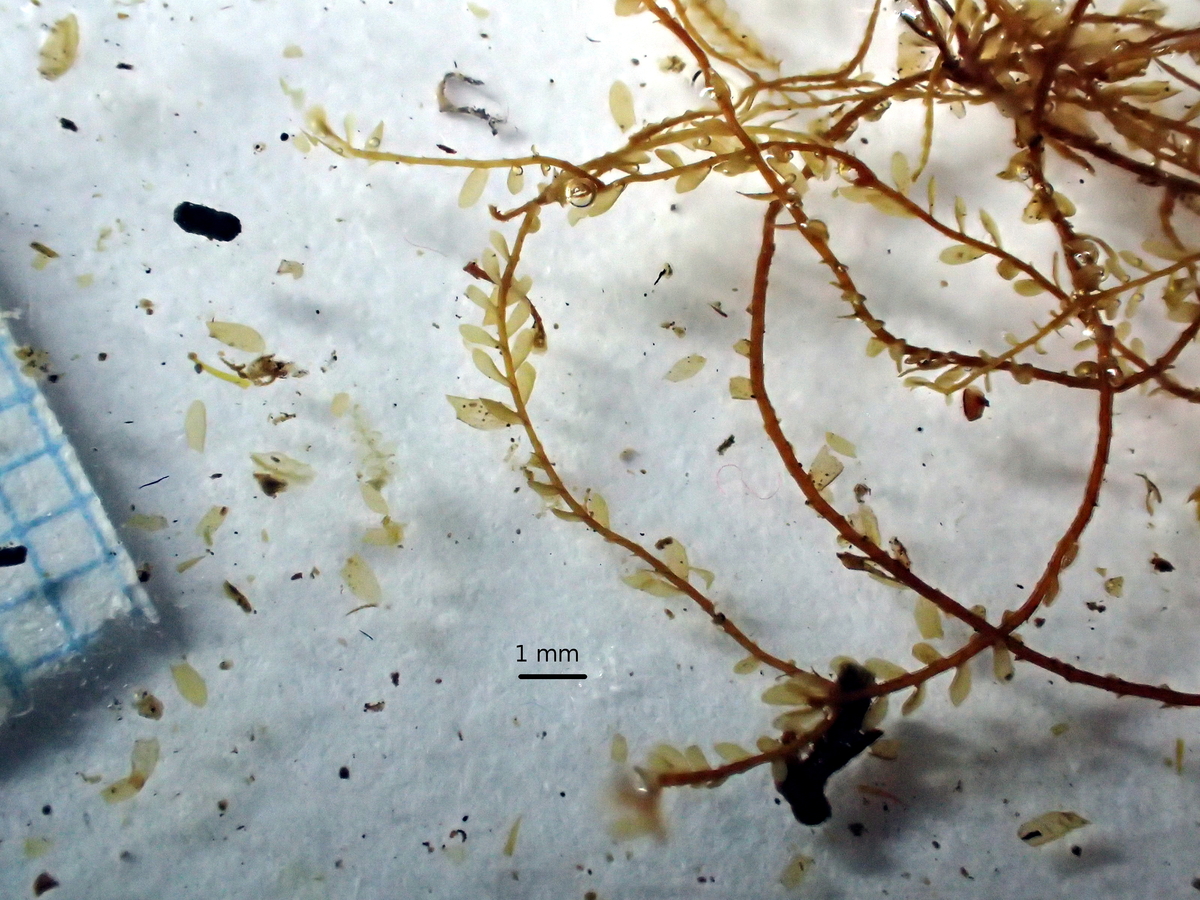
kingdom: Plantae
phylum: Marchantiophyta
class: Jungermanniopsida
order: Jungermanniales
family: Plagiochilaceae
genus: Plagiochila
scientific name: Plagiochila pectinata
